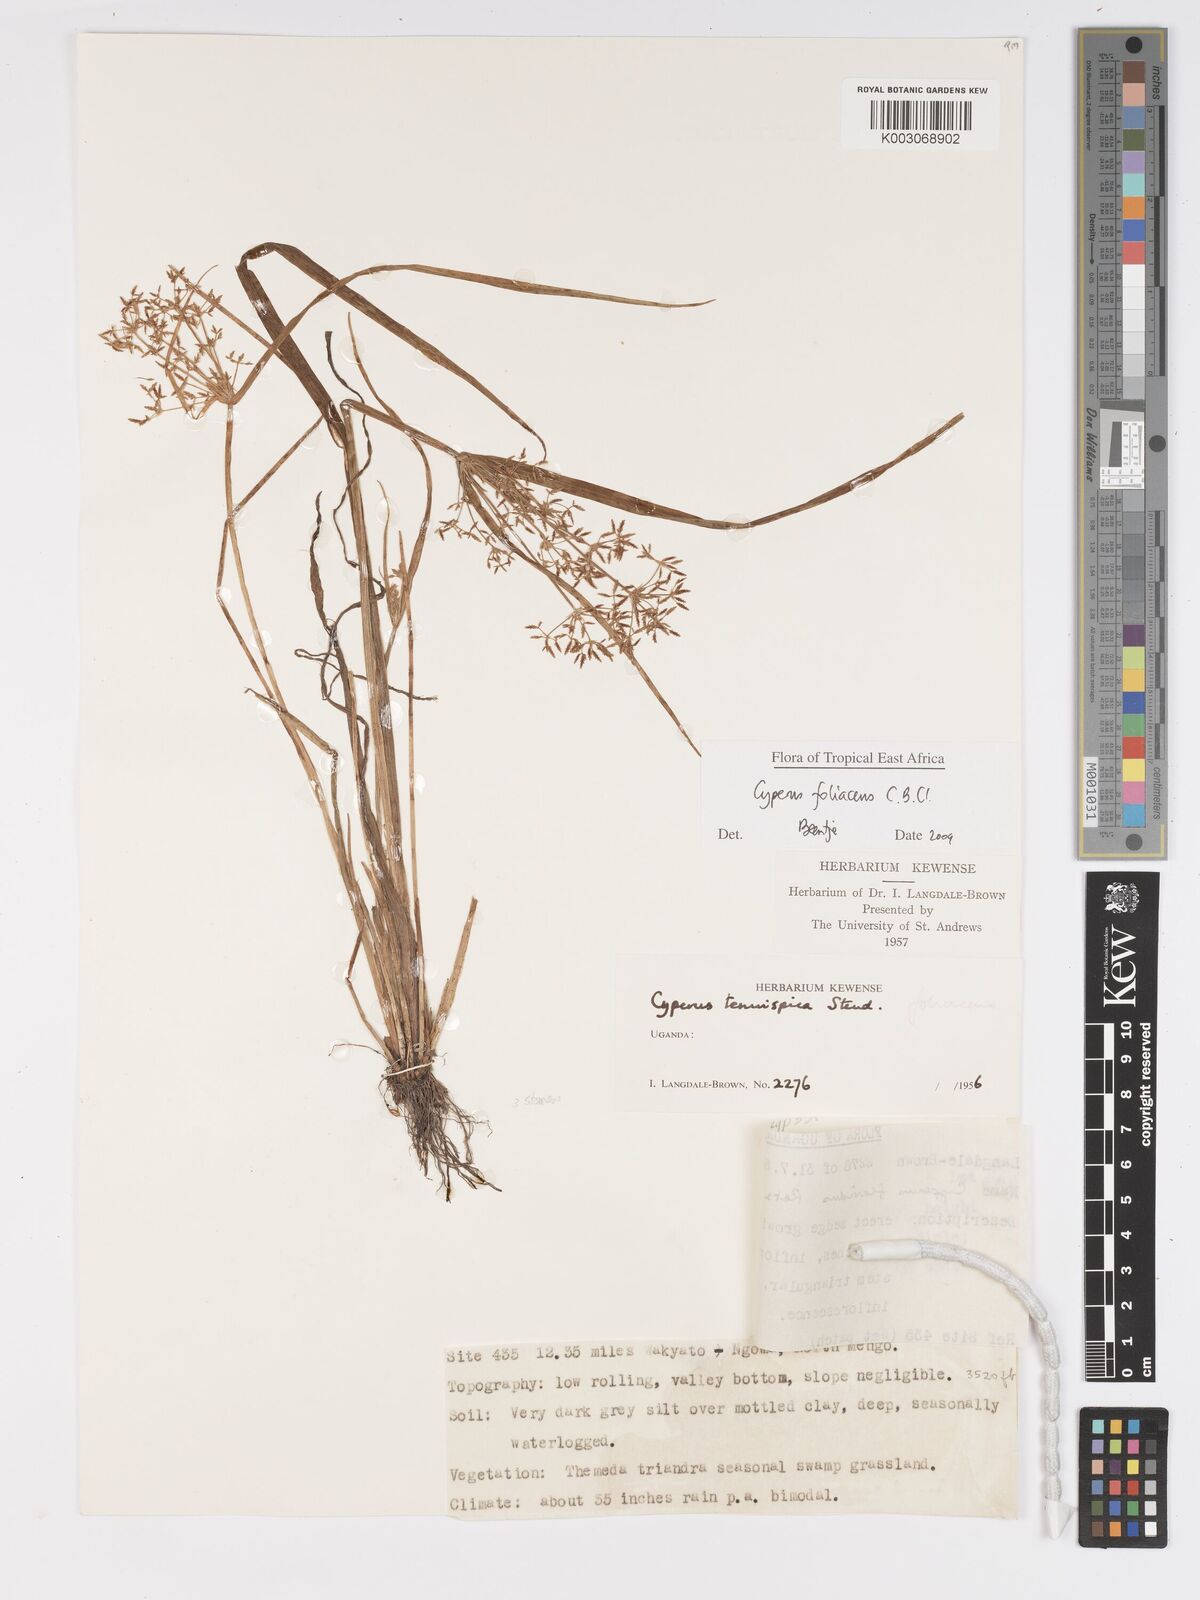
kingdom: Plantae
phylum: Tracheophyta
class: Liliopsida
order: Poales
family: Cyperaceae
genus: Cyperus
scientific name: Cyperus foliaceus
